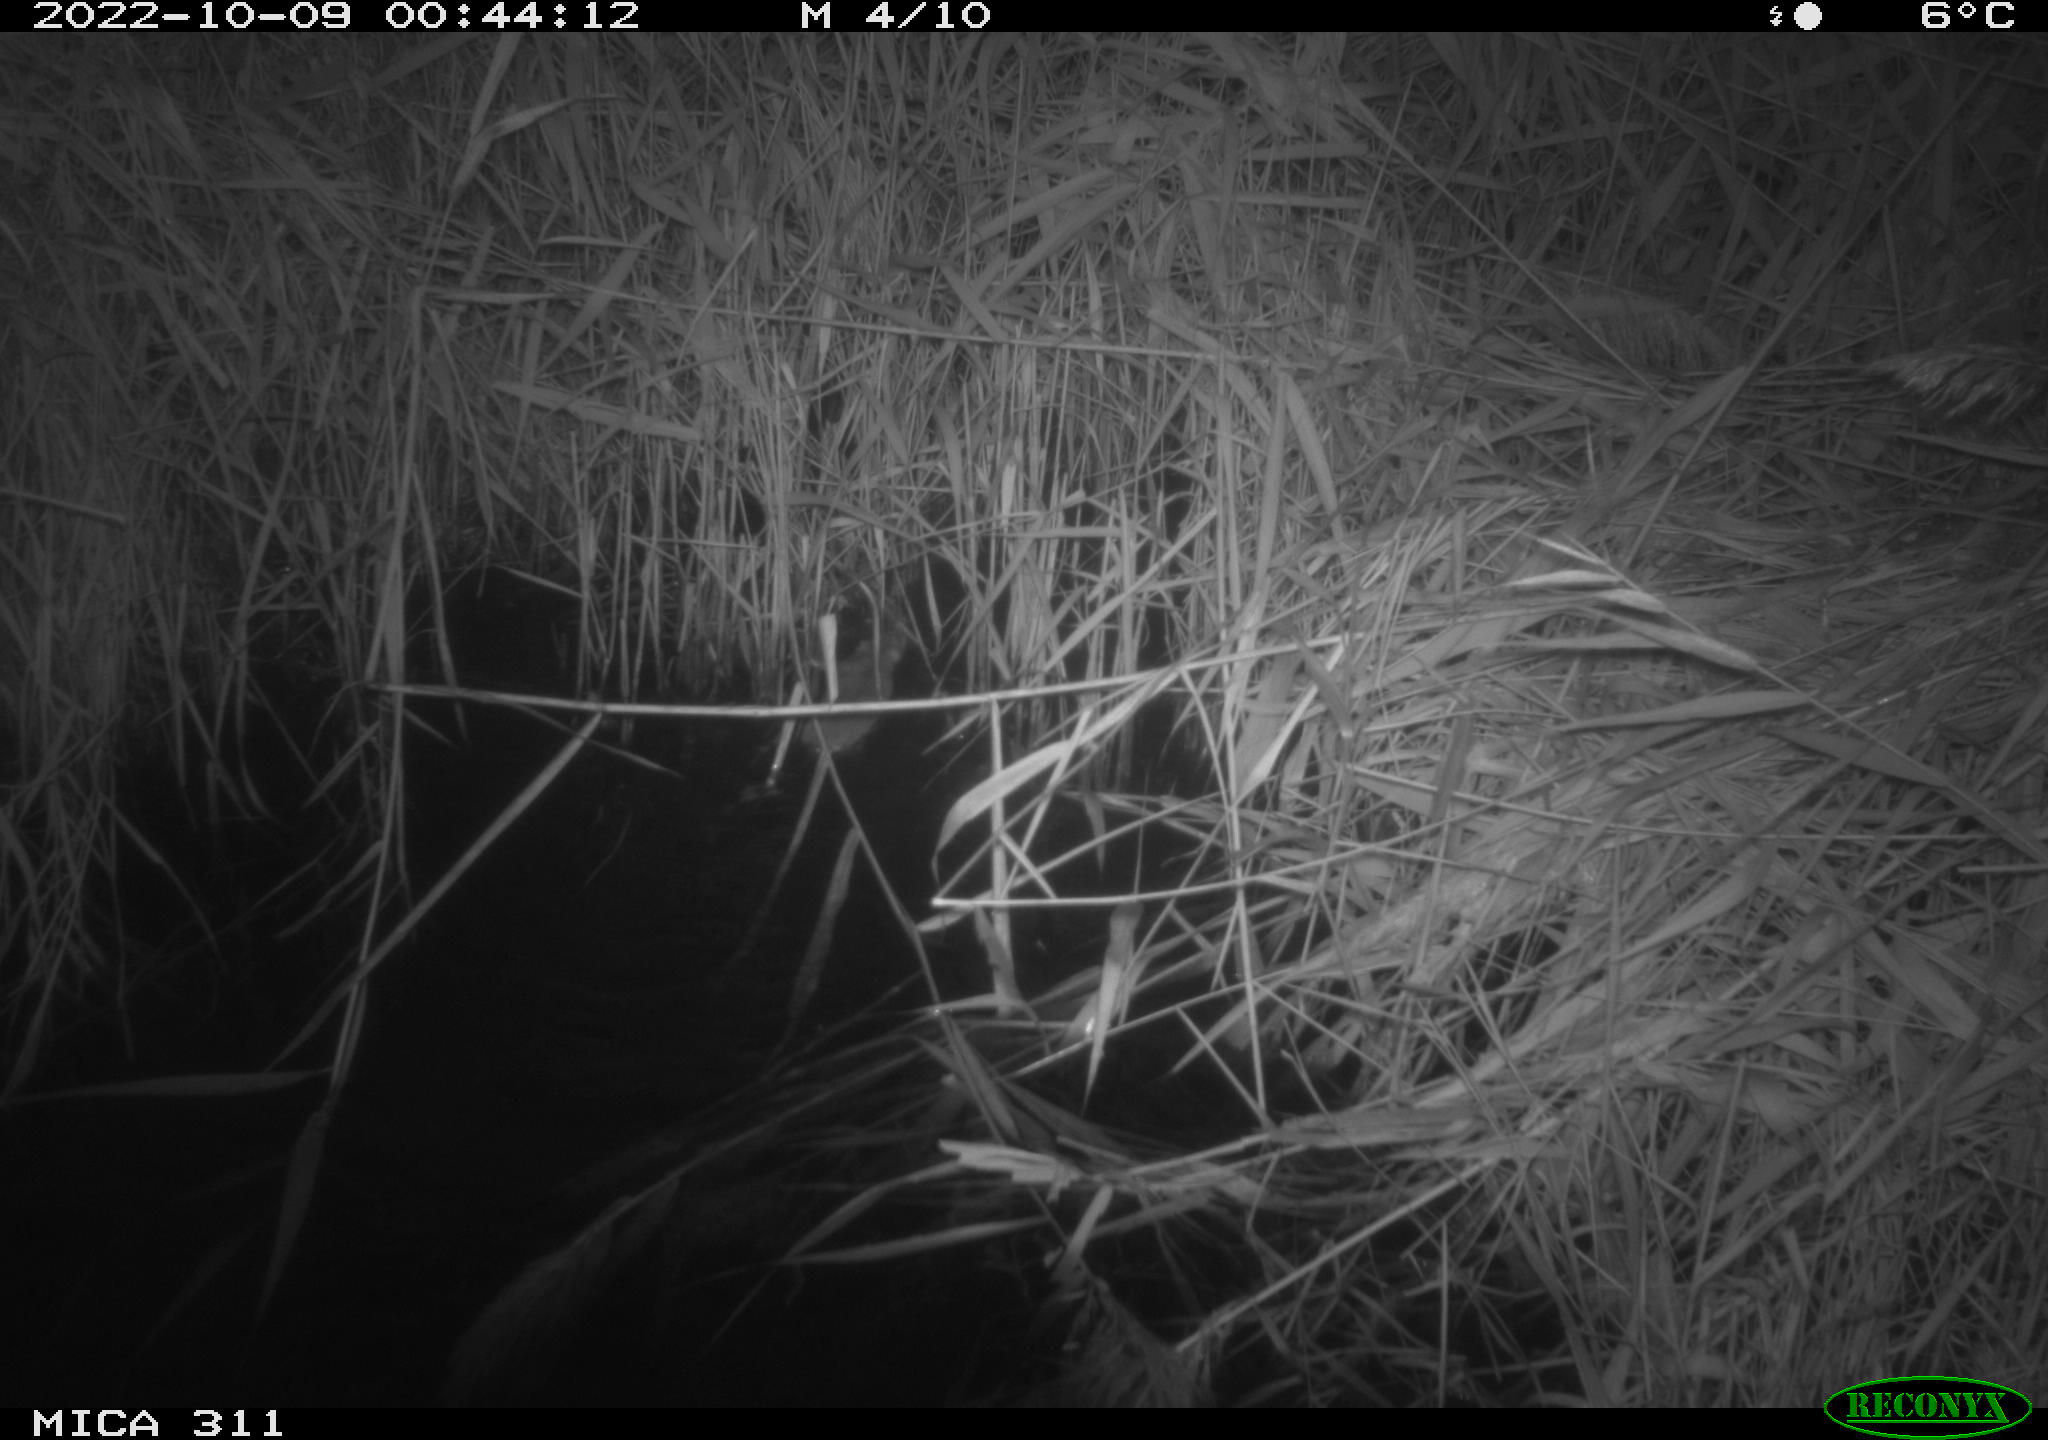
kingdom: Animalia
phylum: Chordata
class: Mammalia
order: Rodentia
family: Muridae
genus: Rattus
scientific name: Rattus norvegicus
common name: Brown rat
